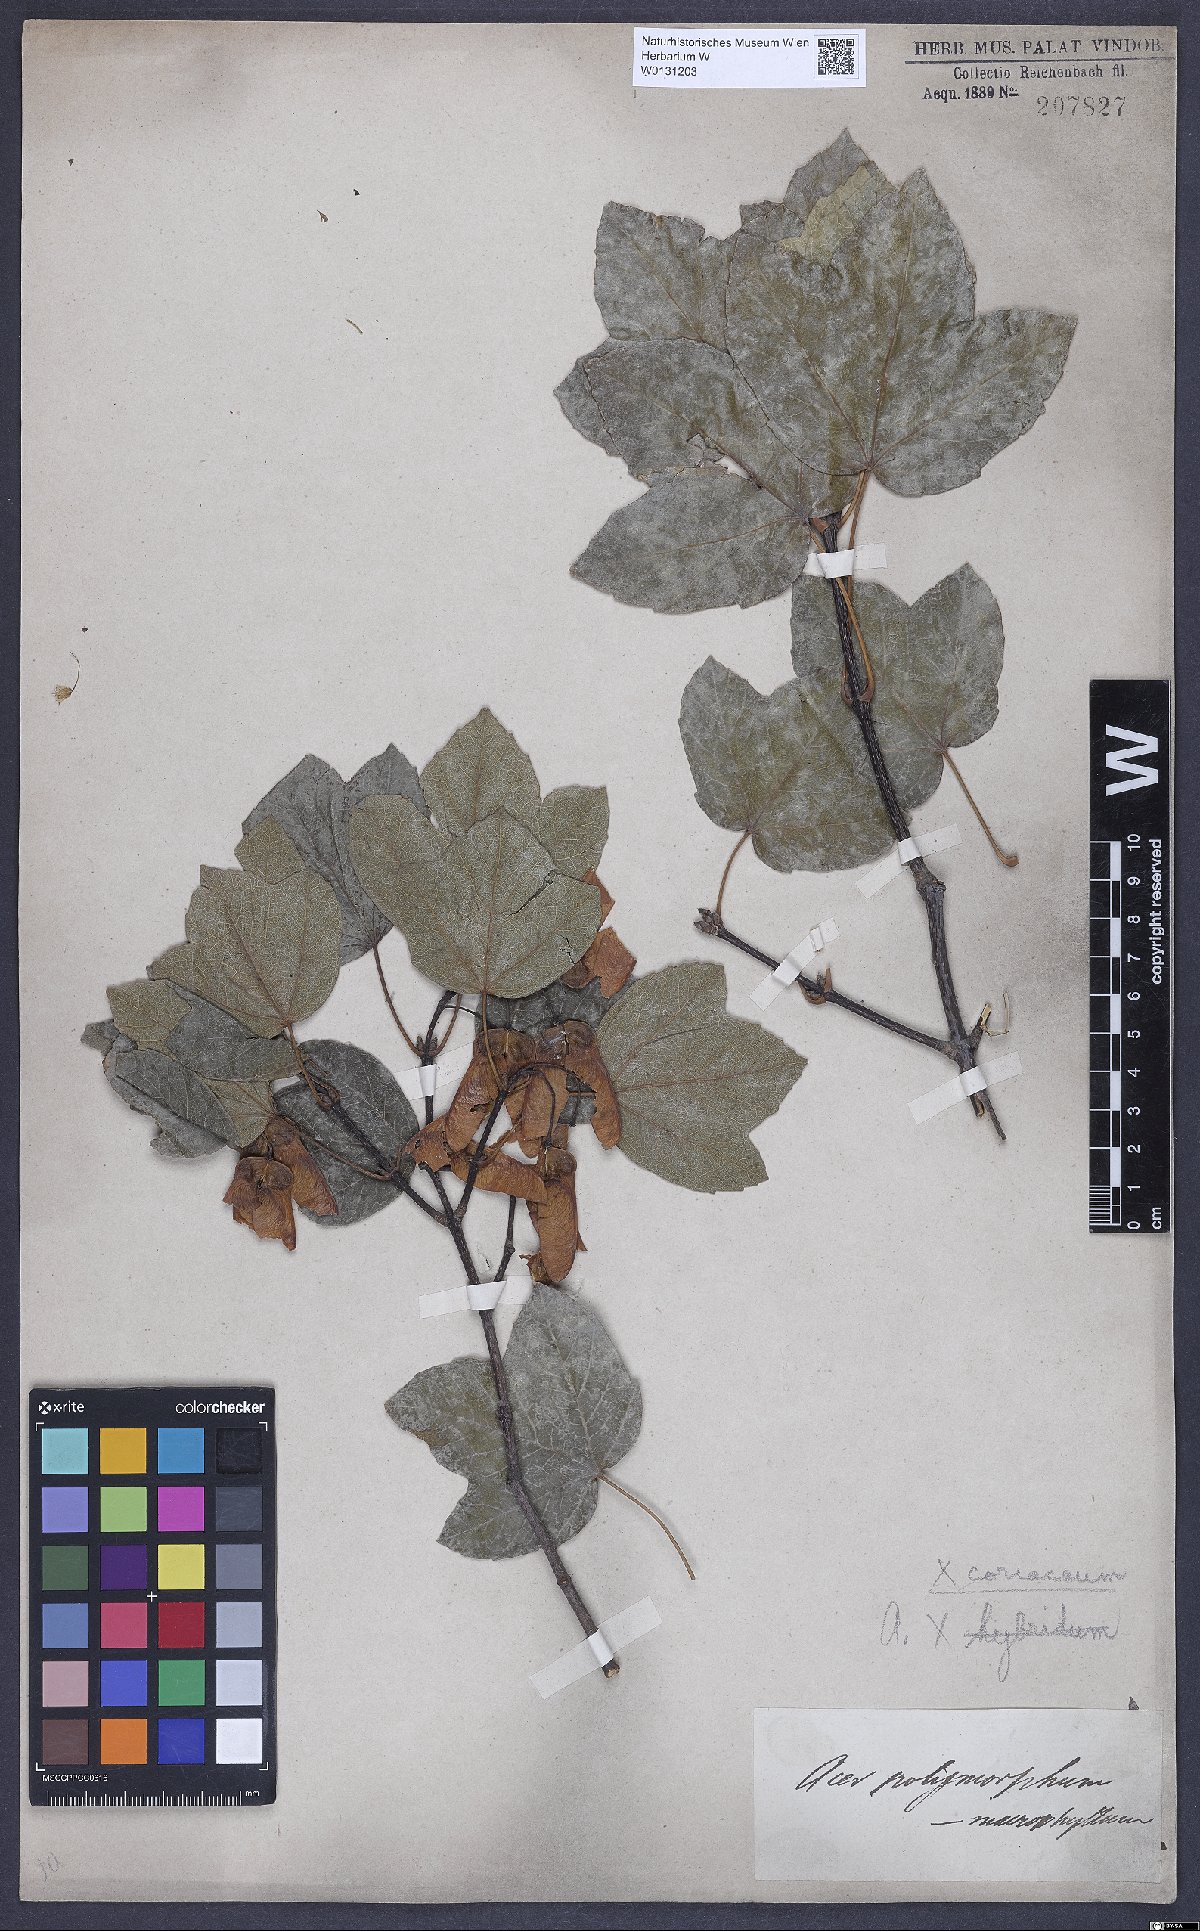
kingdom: Plantae
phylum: Tracheophyta
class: Magnoliopsida
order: Sapindales
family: Aceraceae
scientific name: Aceraceae
